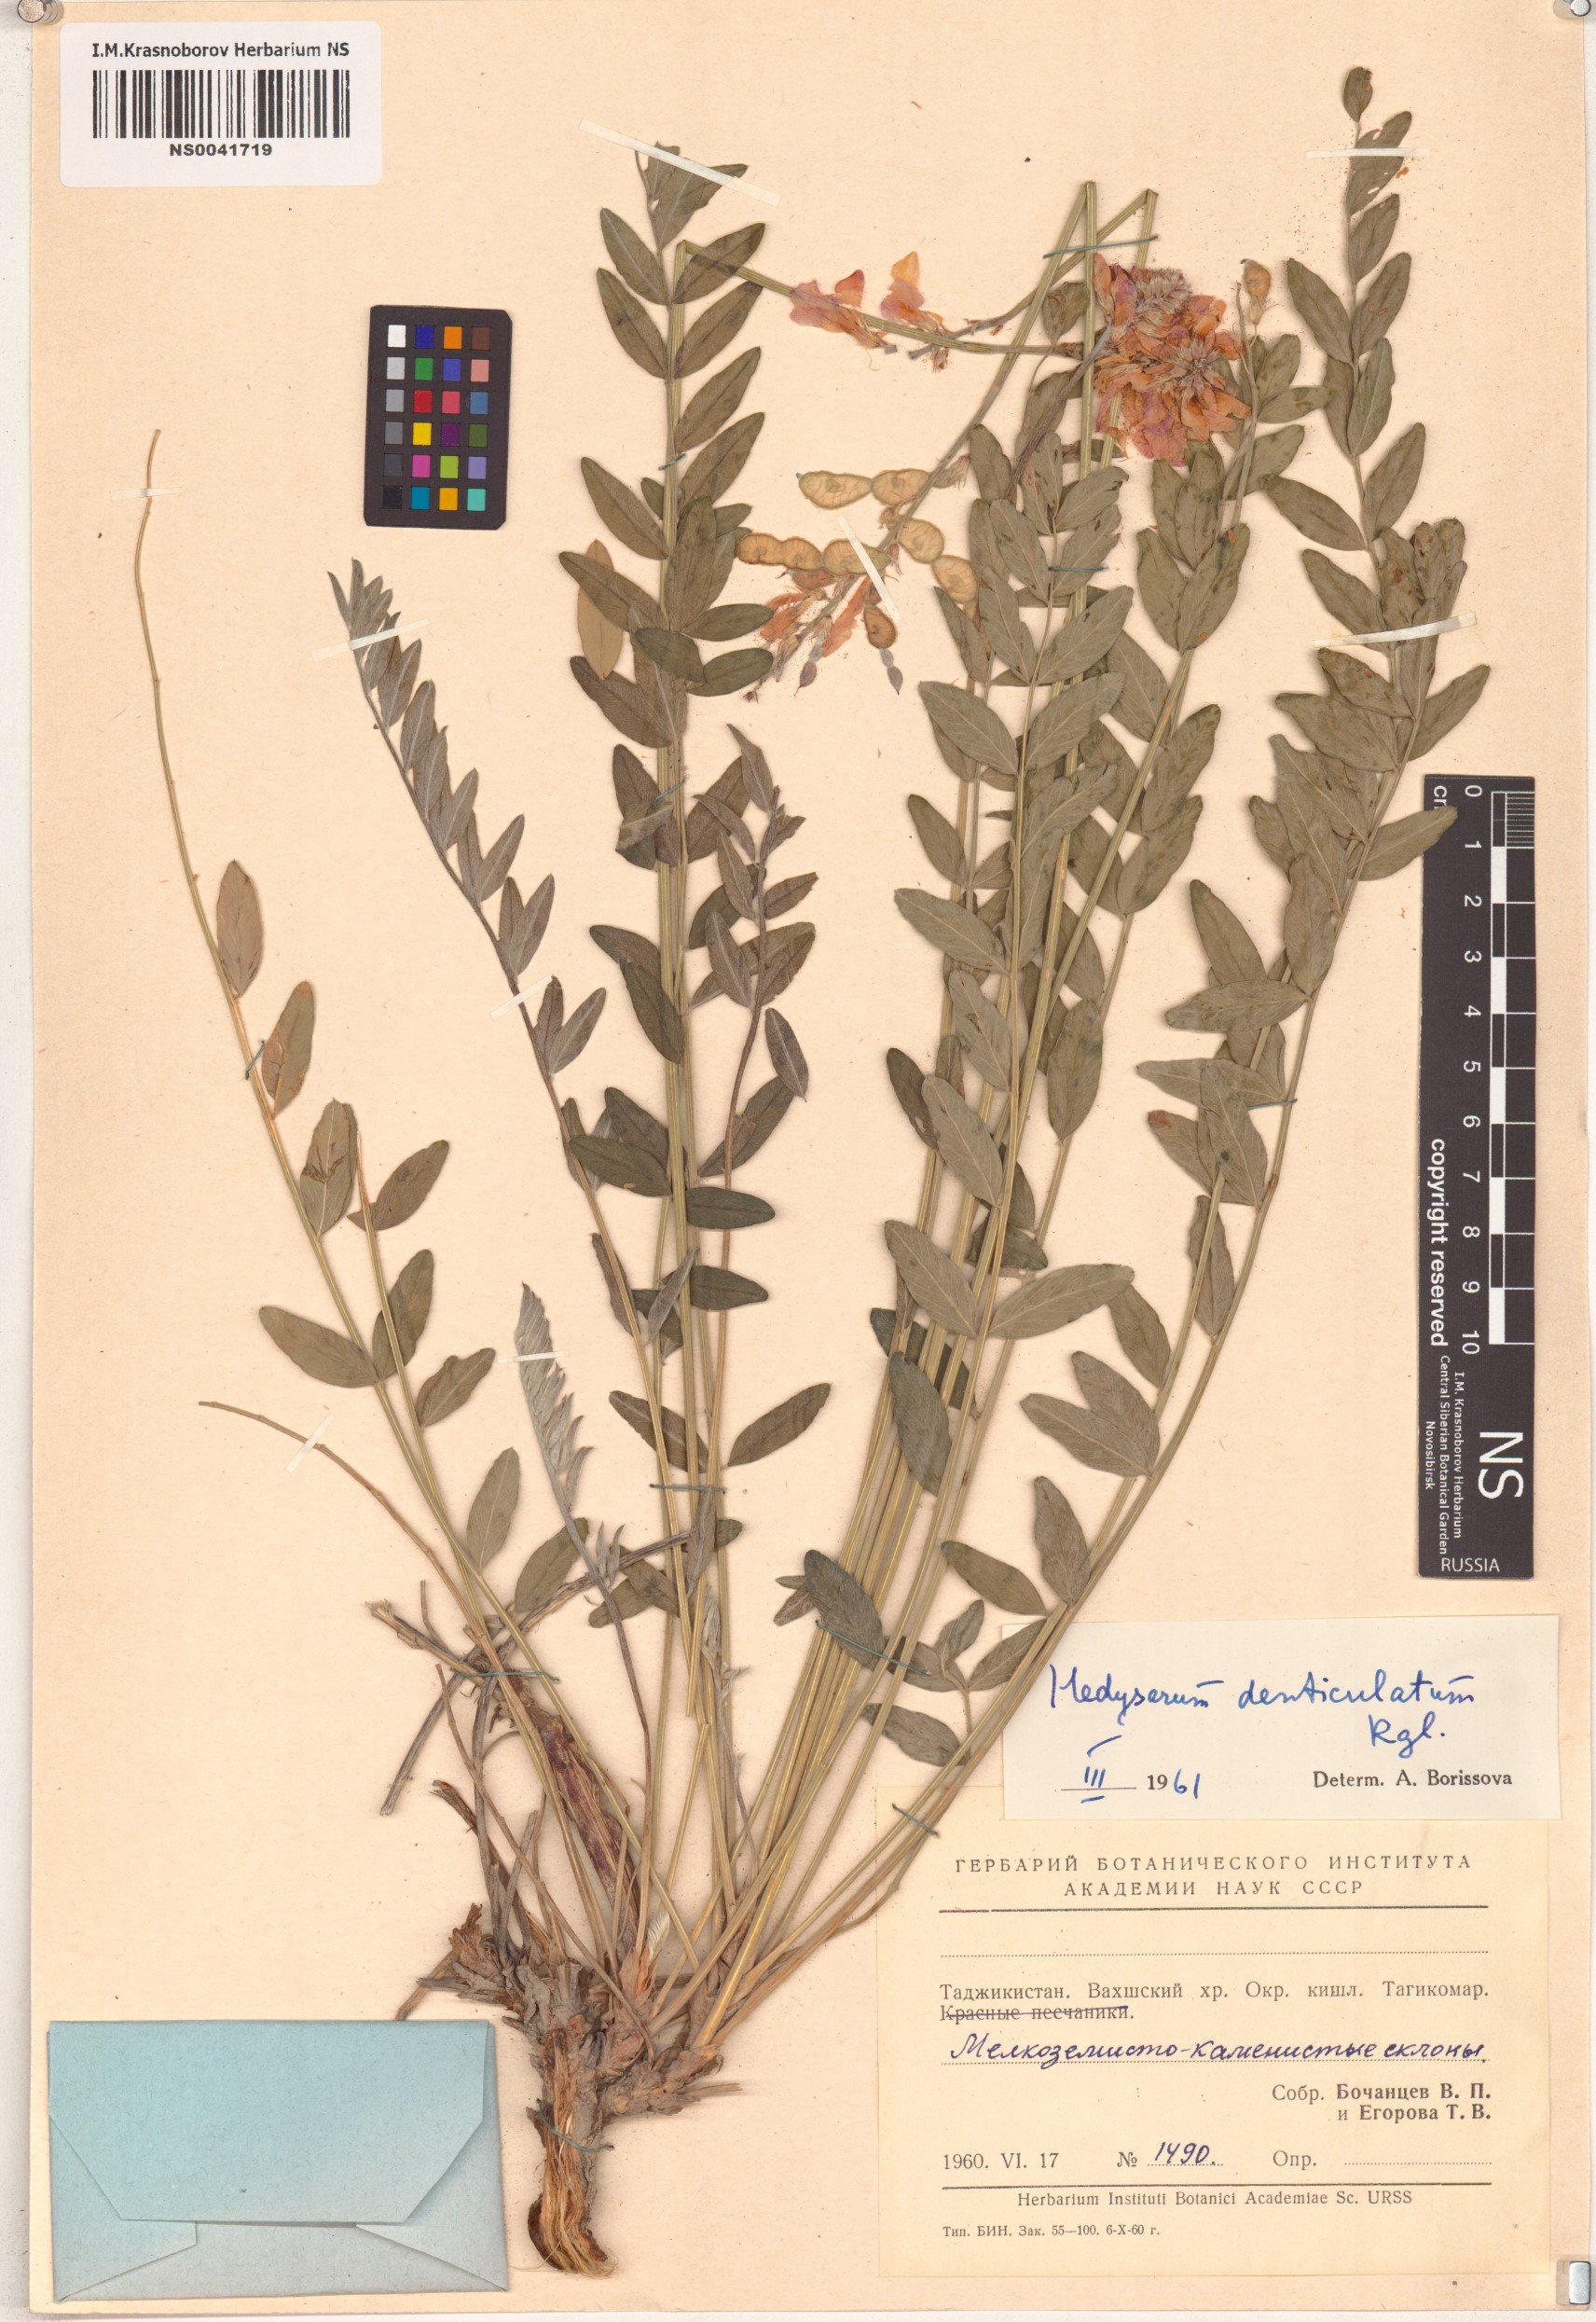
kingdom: Plantae
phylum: Tracheophyta
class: Magnoliopsida
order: Fabales
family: Fabaceae
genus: Hedysarum
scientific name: Hedysarum denticulatum
